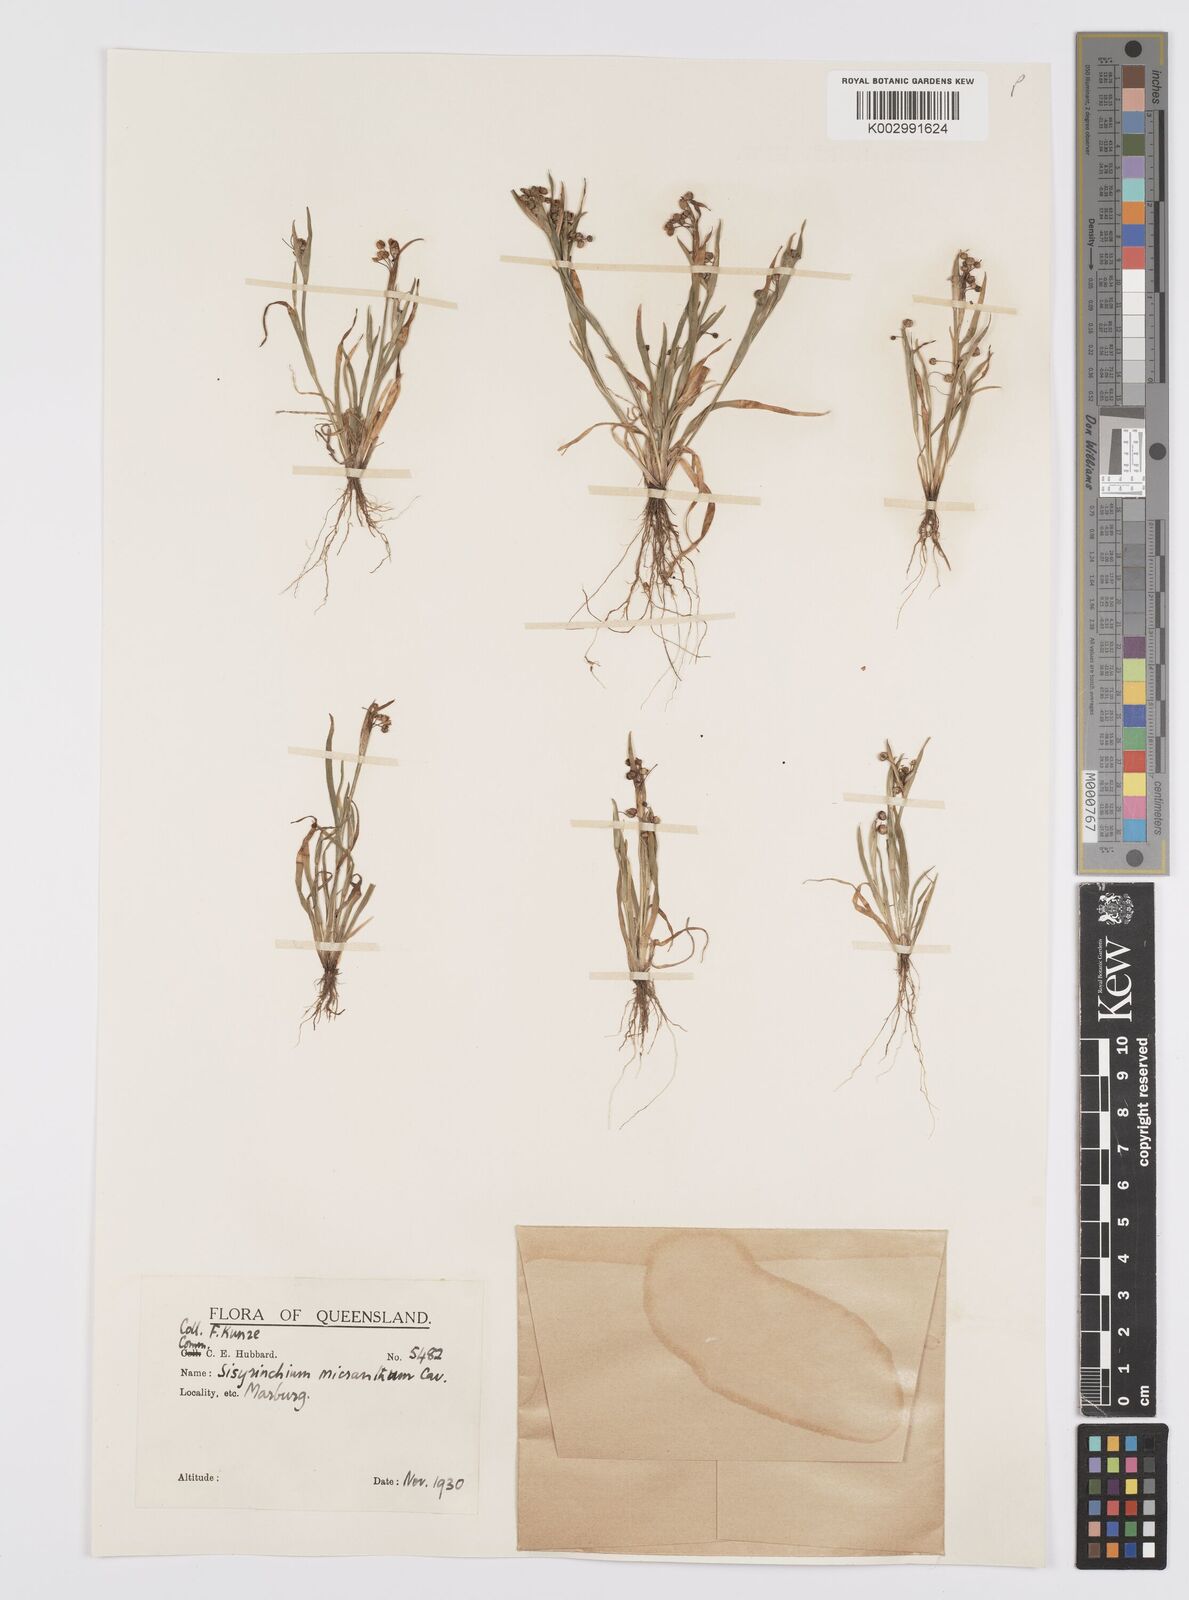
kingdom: Plantae
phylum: Tracheophyta
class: Liliopsida
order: Asparagales
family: Iridaceae
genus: Sisyrinchium
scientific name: Sisyrinchium micranthum
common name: Bermuda pigroot
